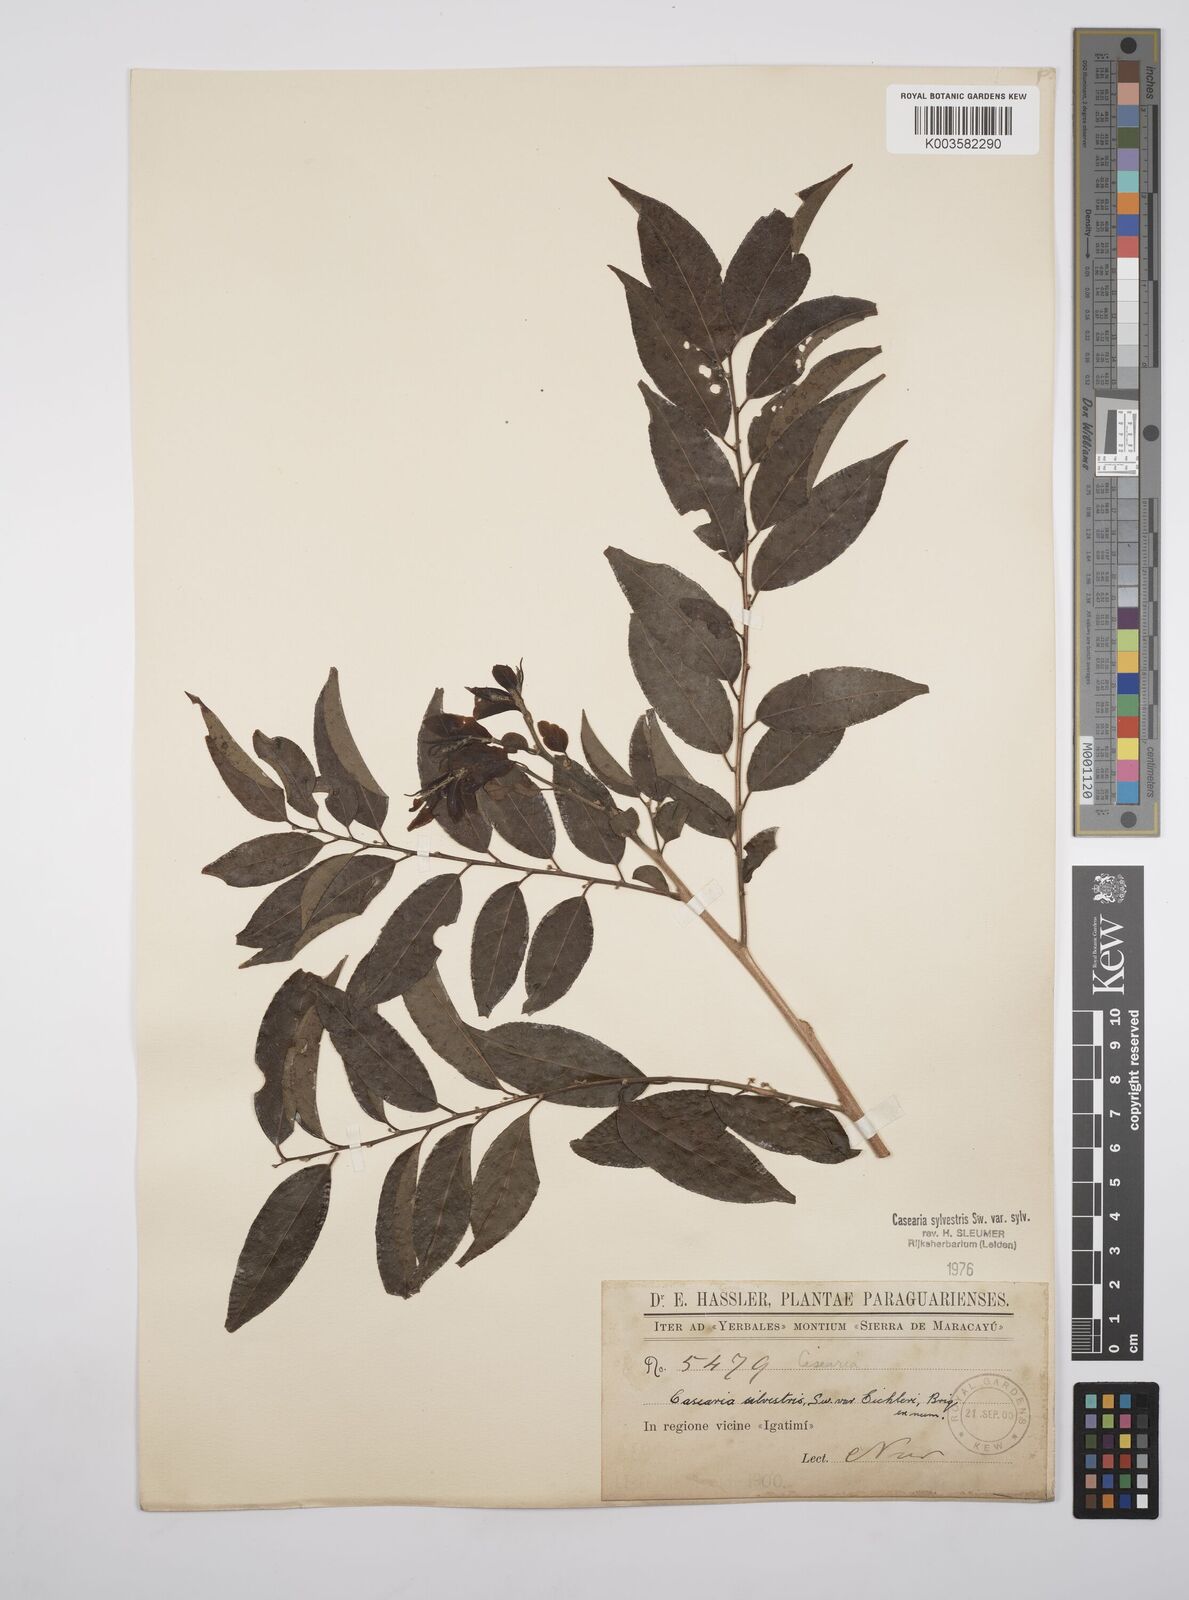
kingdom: Plantae
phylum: Tracheophyta
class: Magnoliopsida
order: Malpighiales
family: Salicaceae
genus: Casearia
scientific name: Casearia sylvestris
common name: Wild sage
